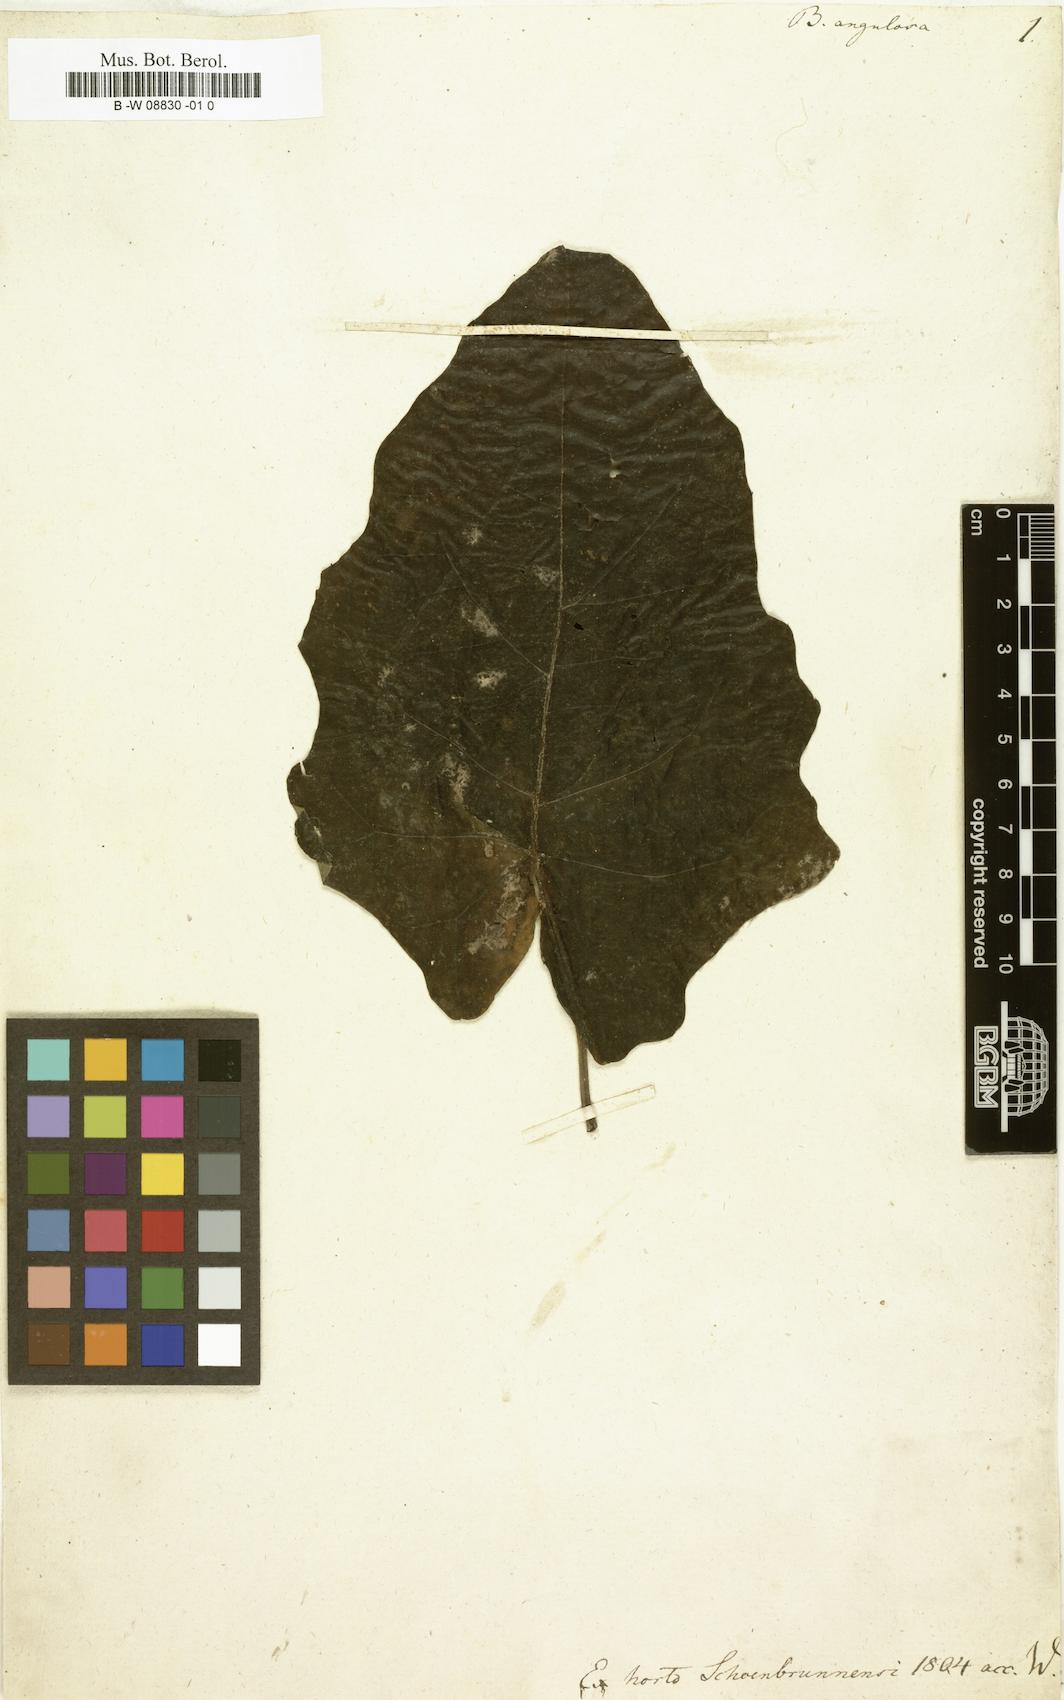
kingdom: Plantae
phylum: Tracheophyta
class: Magnoliopsida
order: Malpighiales
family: Malpighiaceae
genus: Stigmaphyllon
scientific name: Stigmaphyllon angulosum
